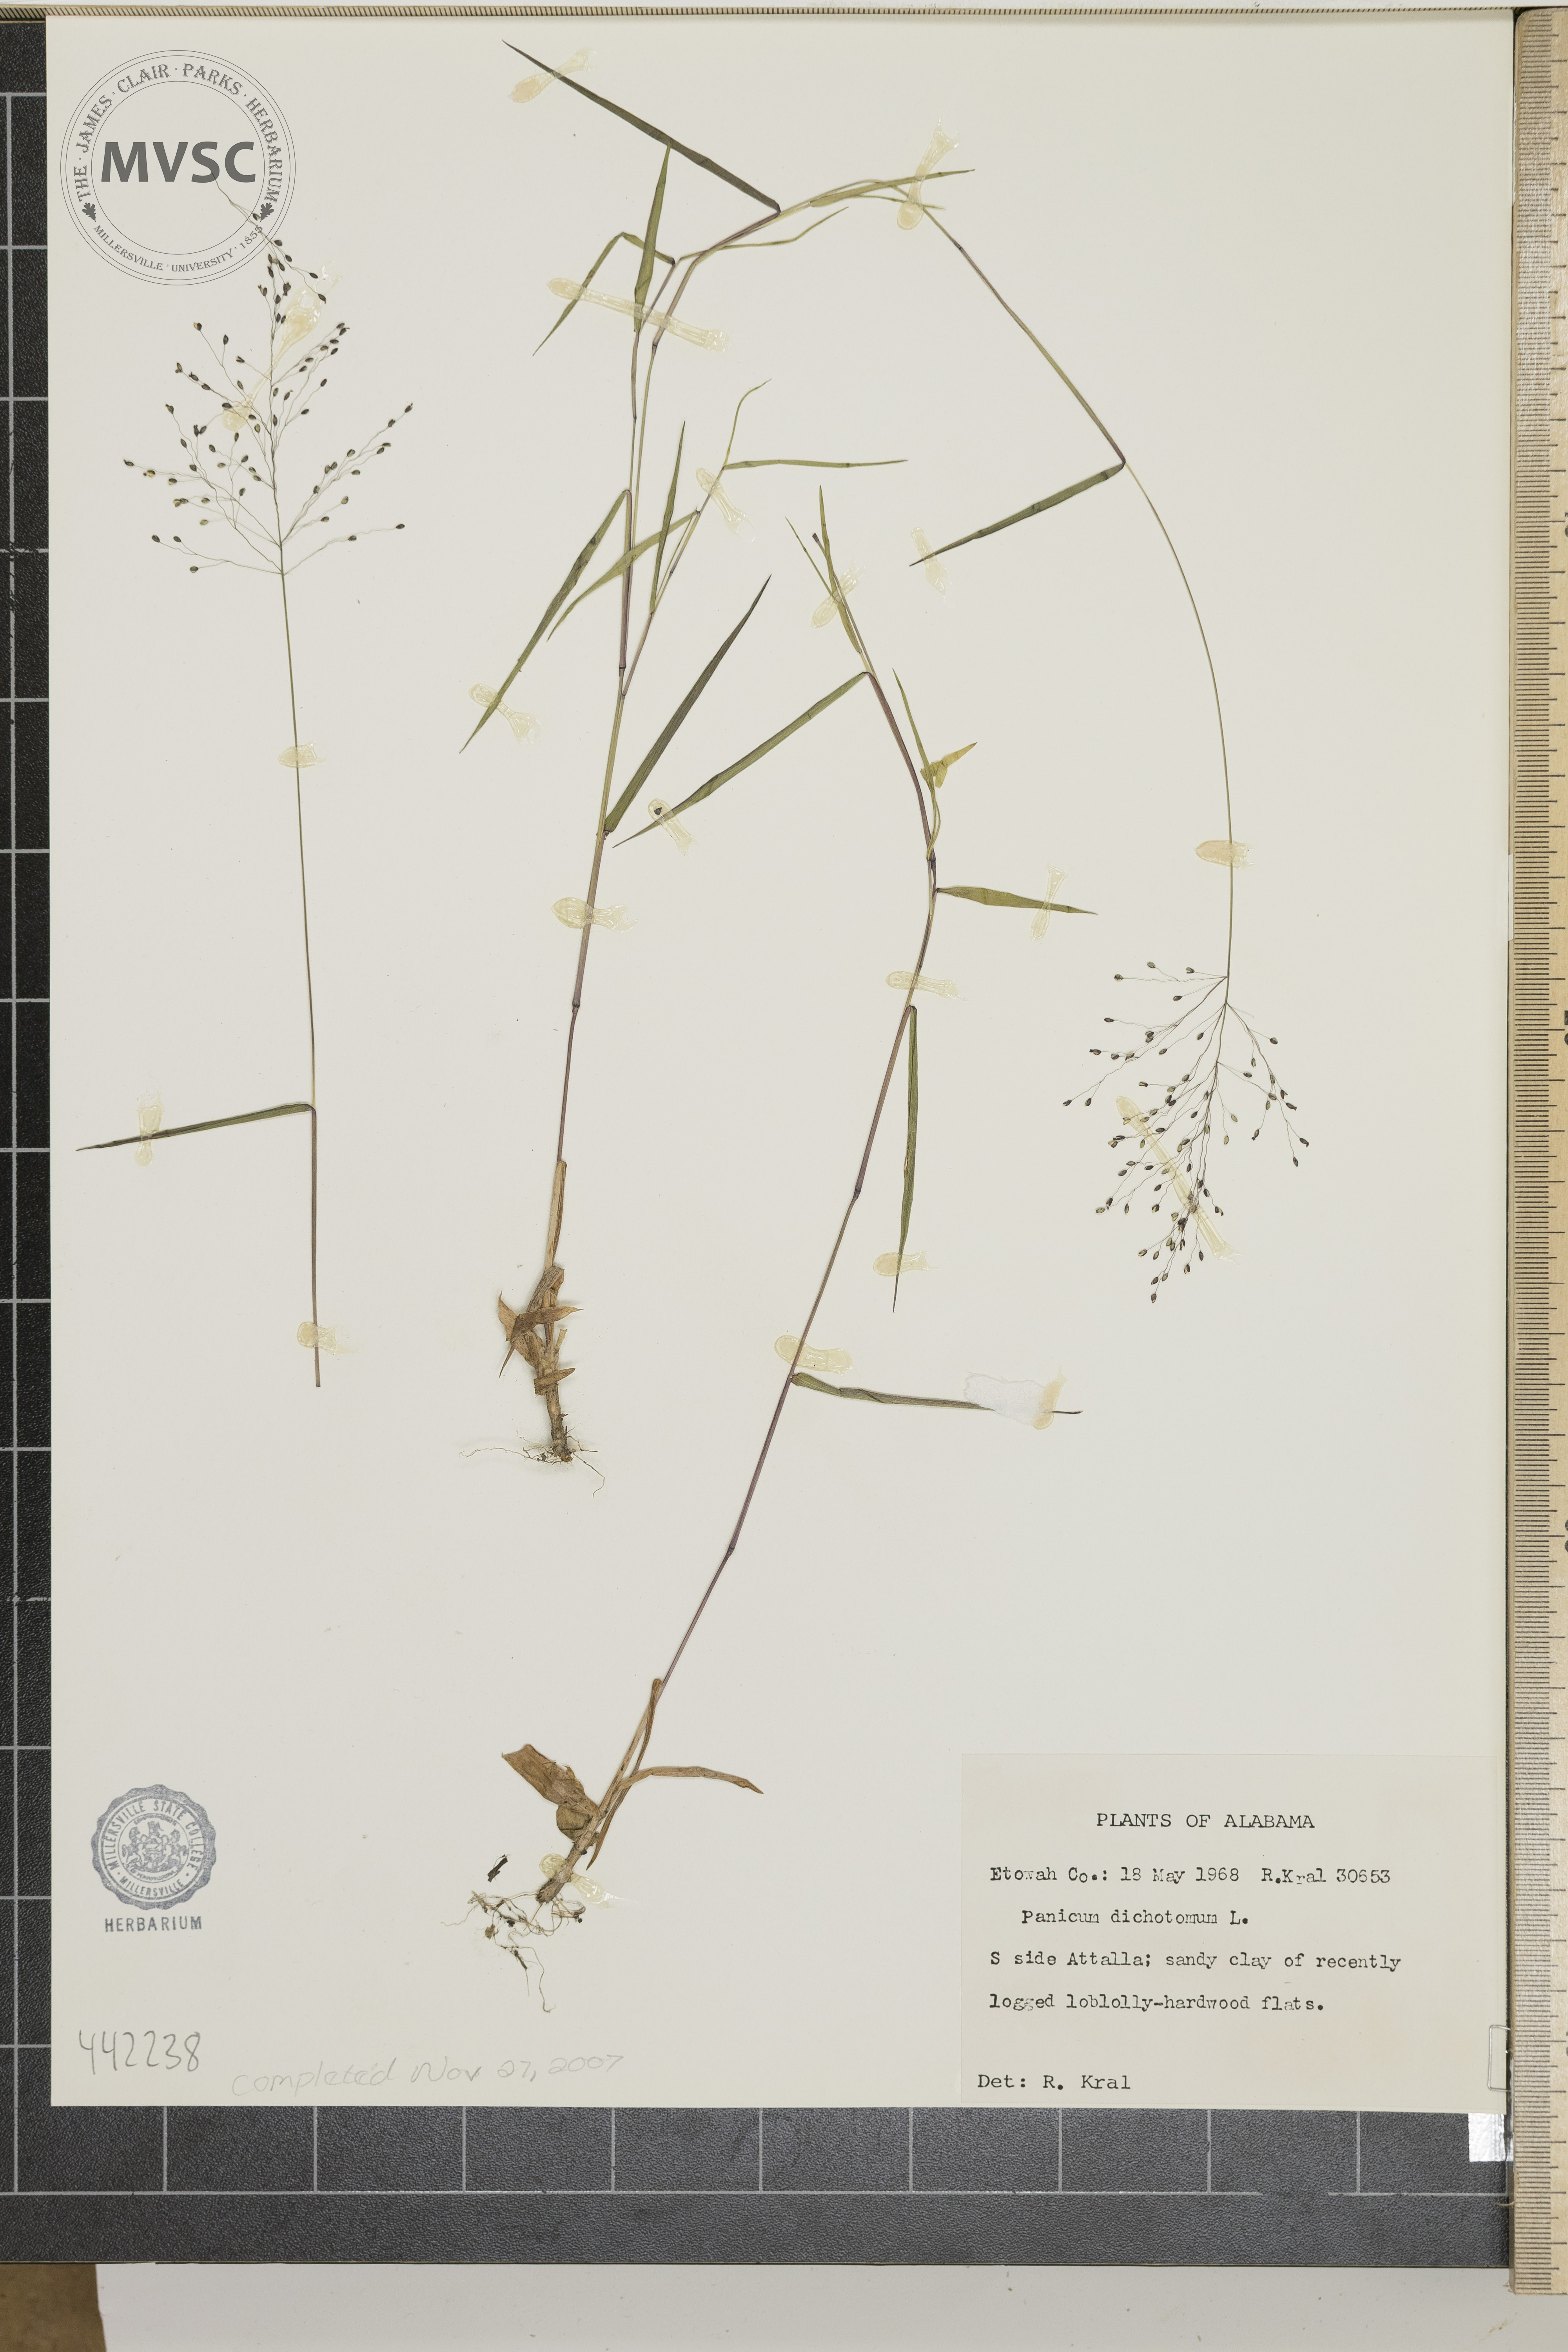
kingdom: Plantae
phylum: Tracheophyta
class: Liliopsida
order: Poales
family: Poaceae
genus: Dichanthelium
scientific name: Dichanthelium dichotomum
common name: Cypress panicgrass
